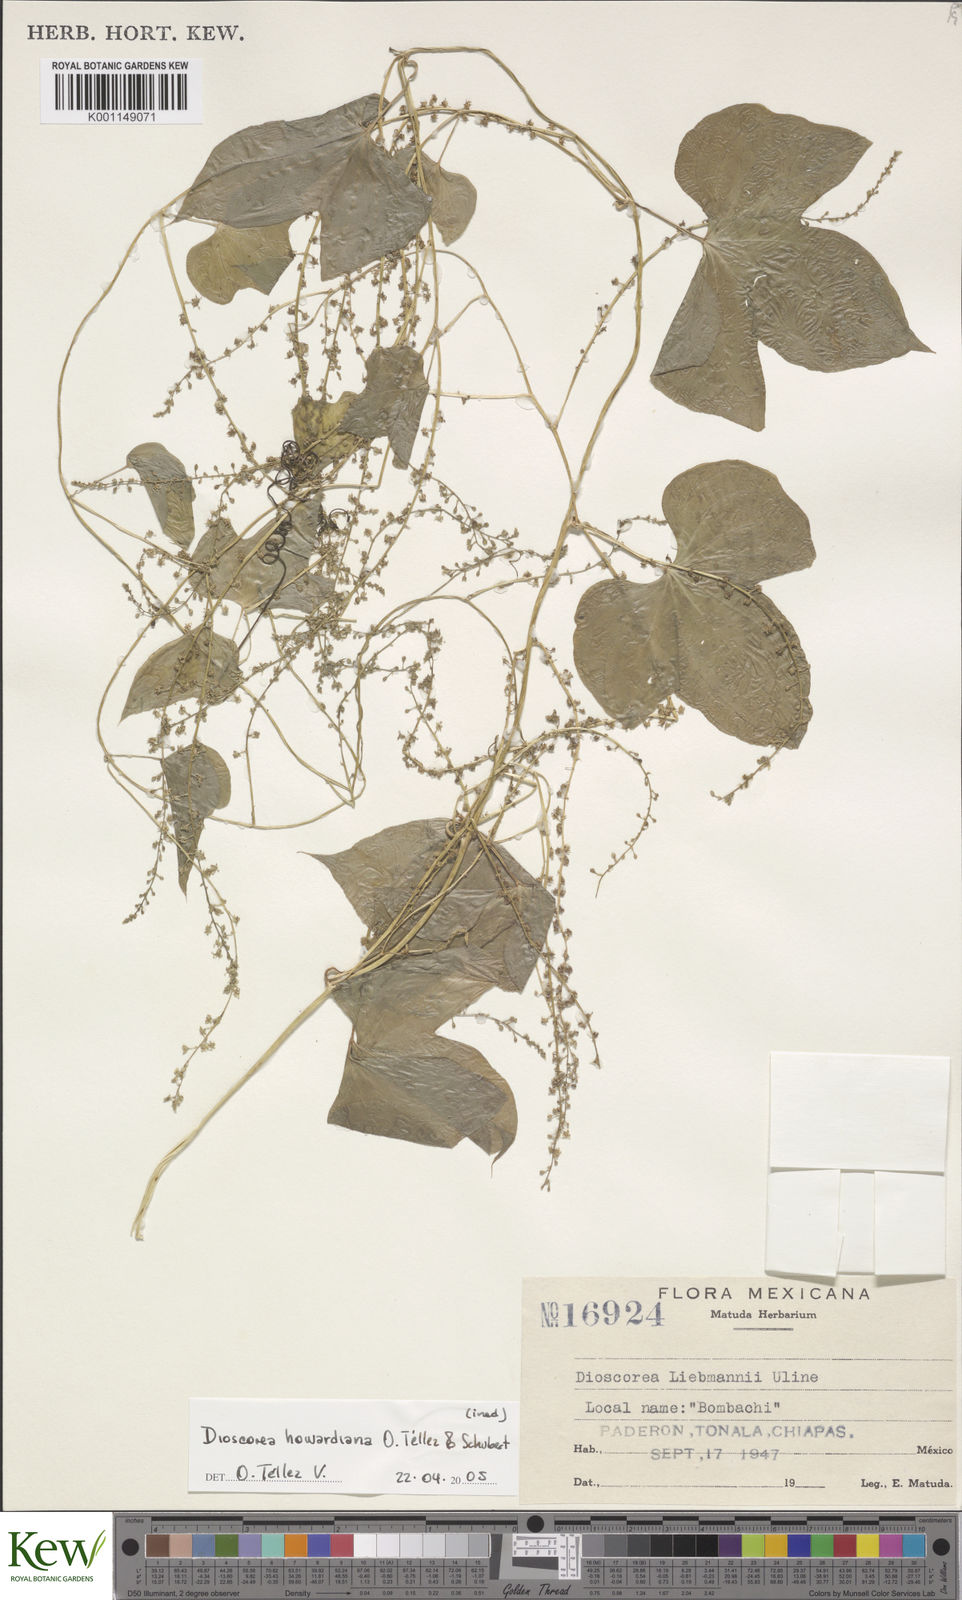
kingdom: Plantae
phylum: Tracheophyta
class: Liliopsida
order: Dioscoreales
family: Dioscoreaceae
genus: Dioscorea
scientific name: Dioscorea
